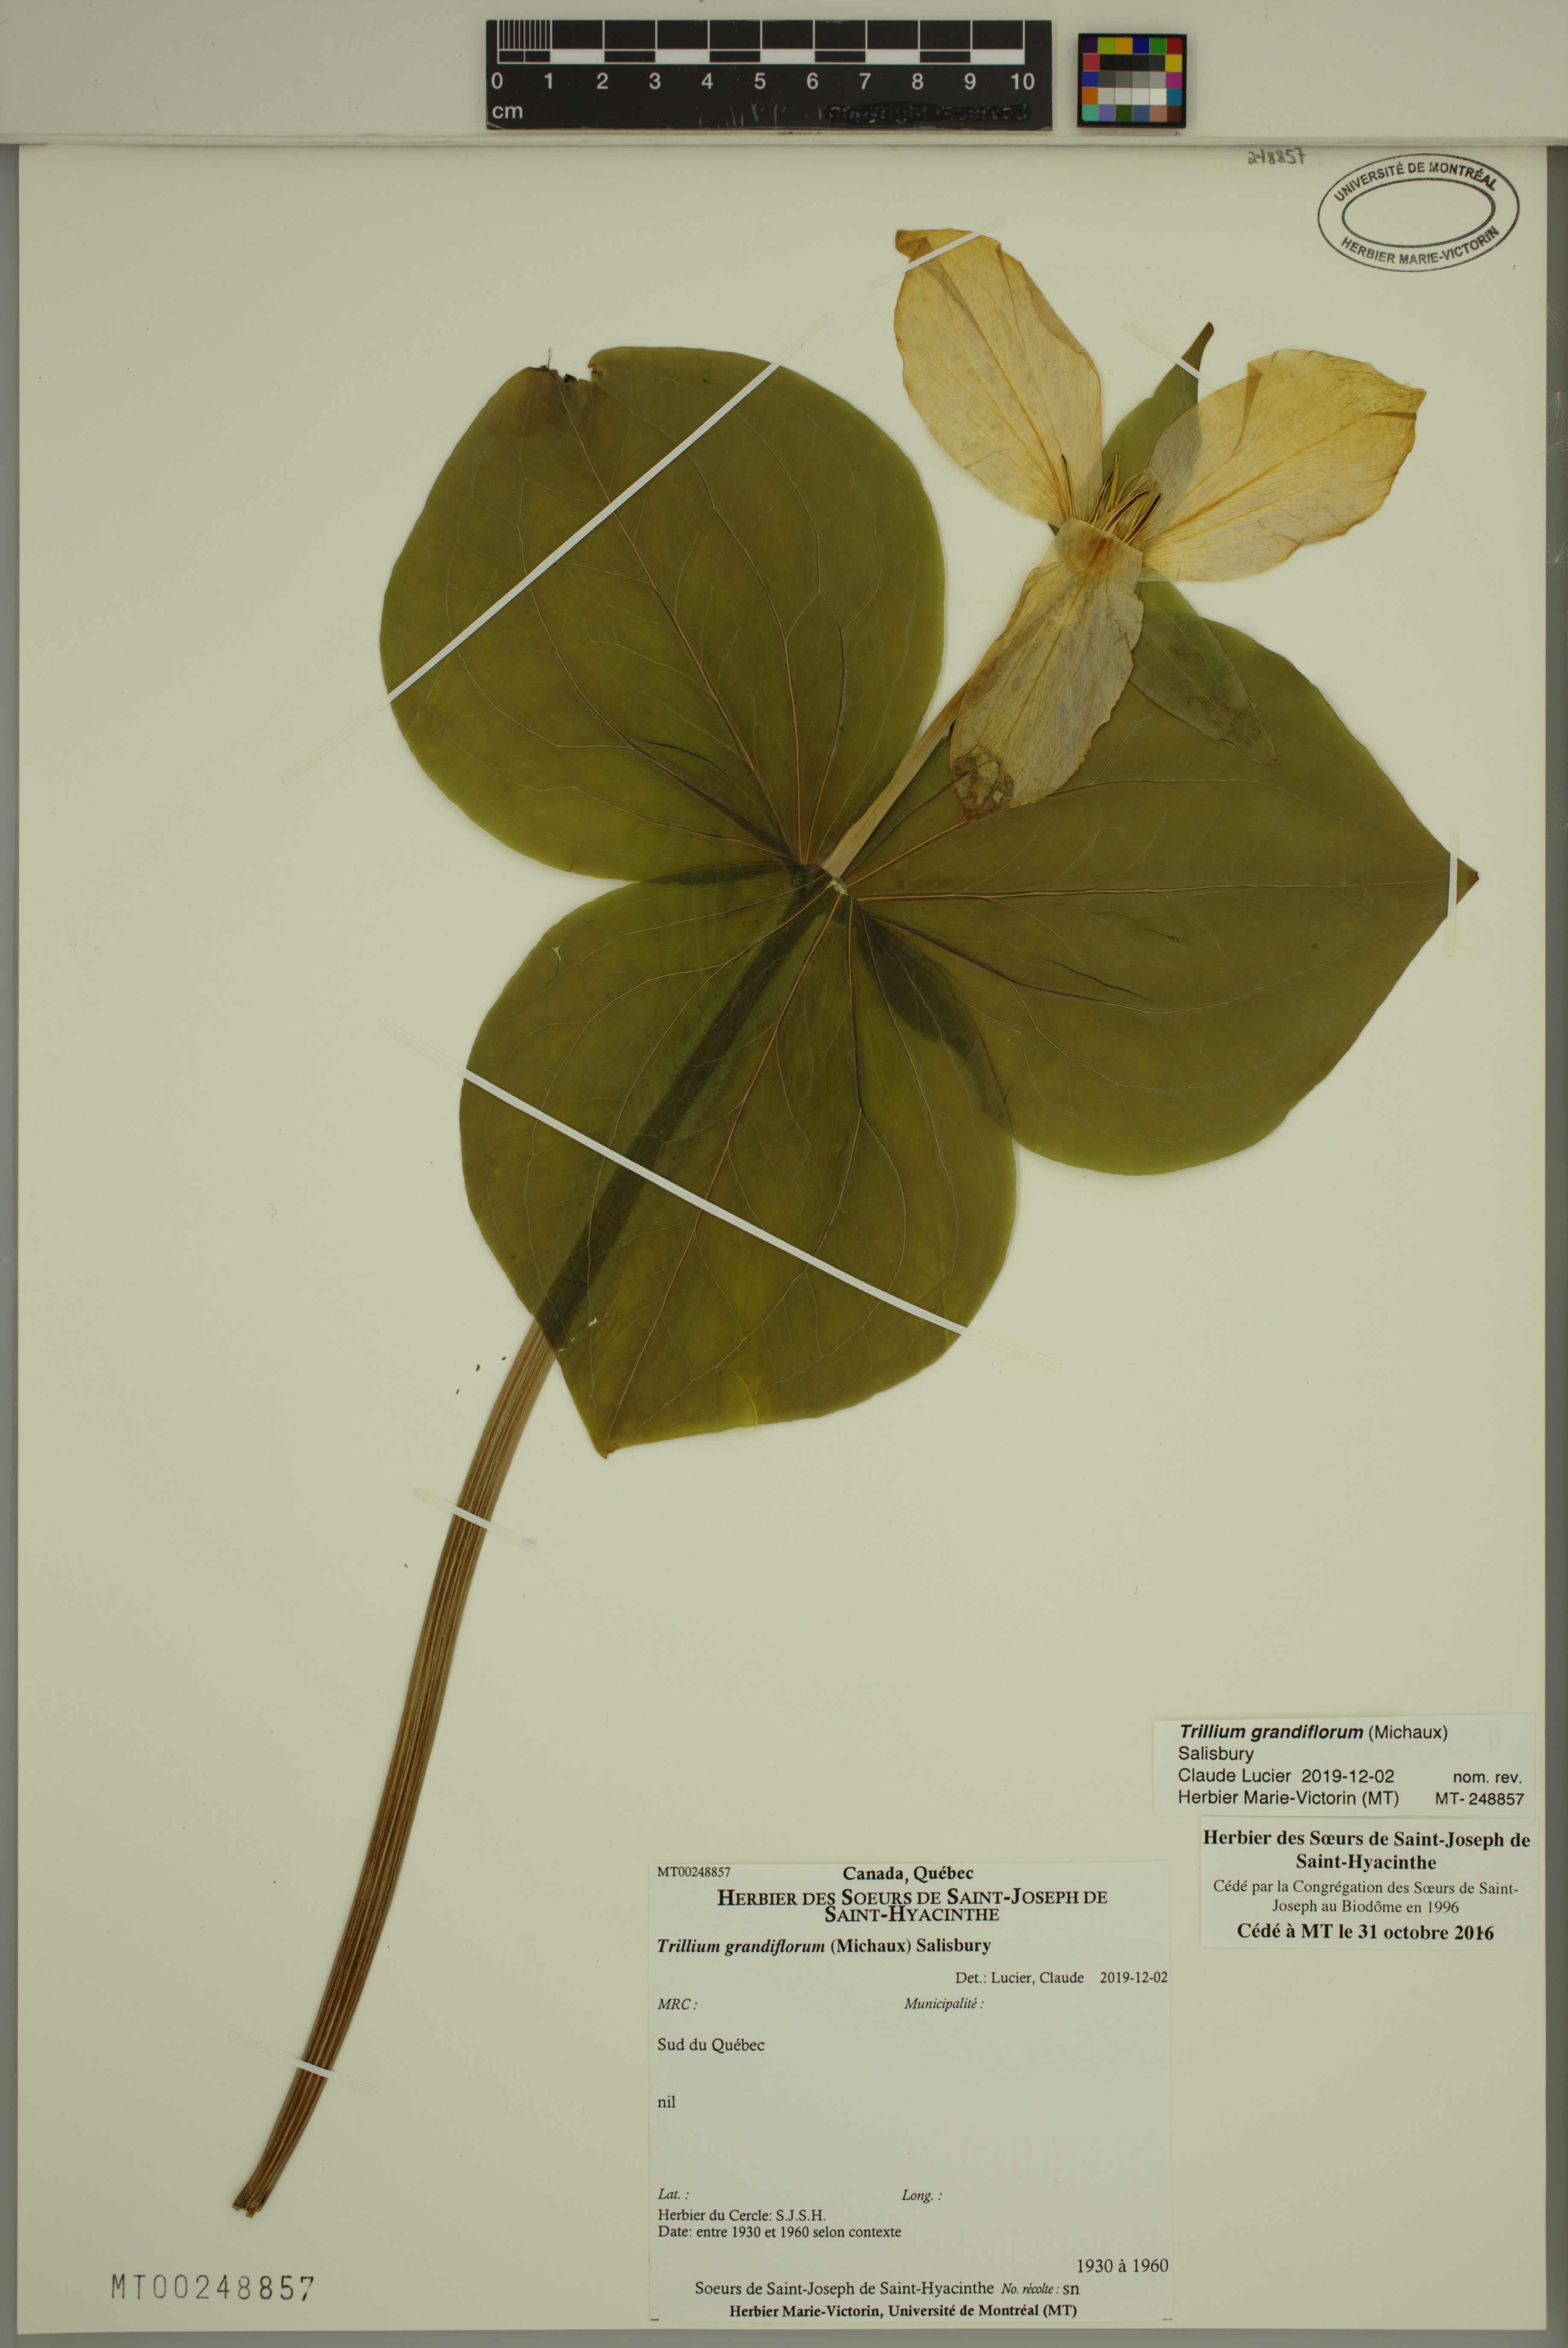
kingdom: Plantae
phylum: Tracheophyta
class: Liliopsida
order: Liliales
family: Melanthiaceae
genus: Trillium
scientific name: Trillium grandiflorum
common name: Great white trillium
